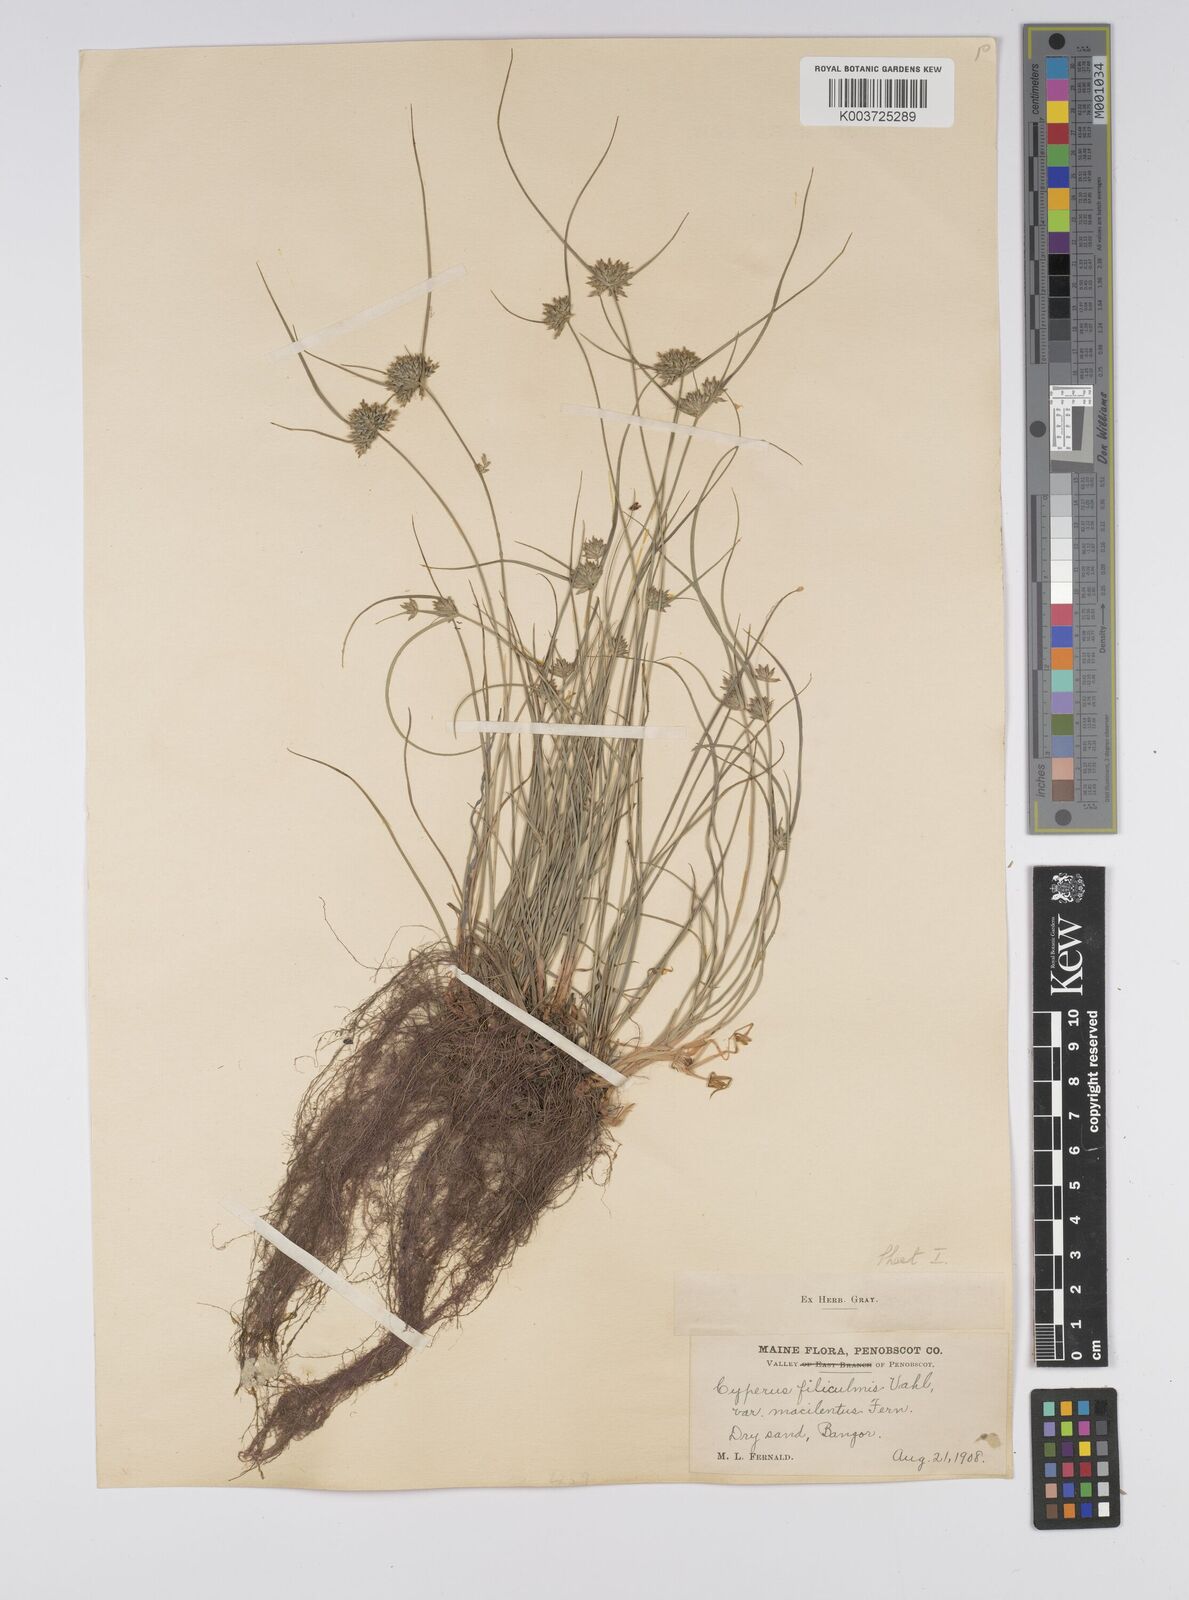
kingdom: Plantae
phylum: Tracheophyta
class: Liliopsida
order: Poales
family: Cyperaceae
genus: Cyperus
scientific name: Cyperus lupulinus
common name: Great plains flatsedge
